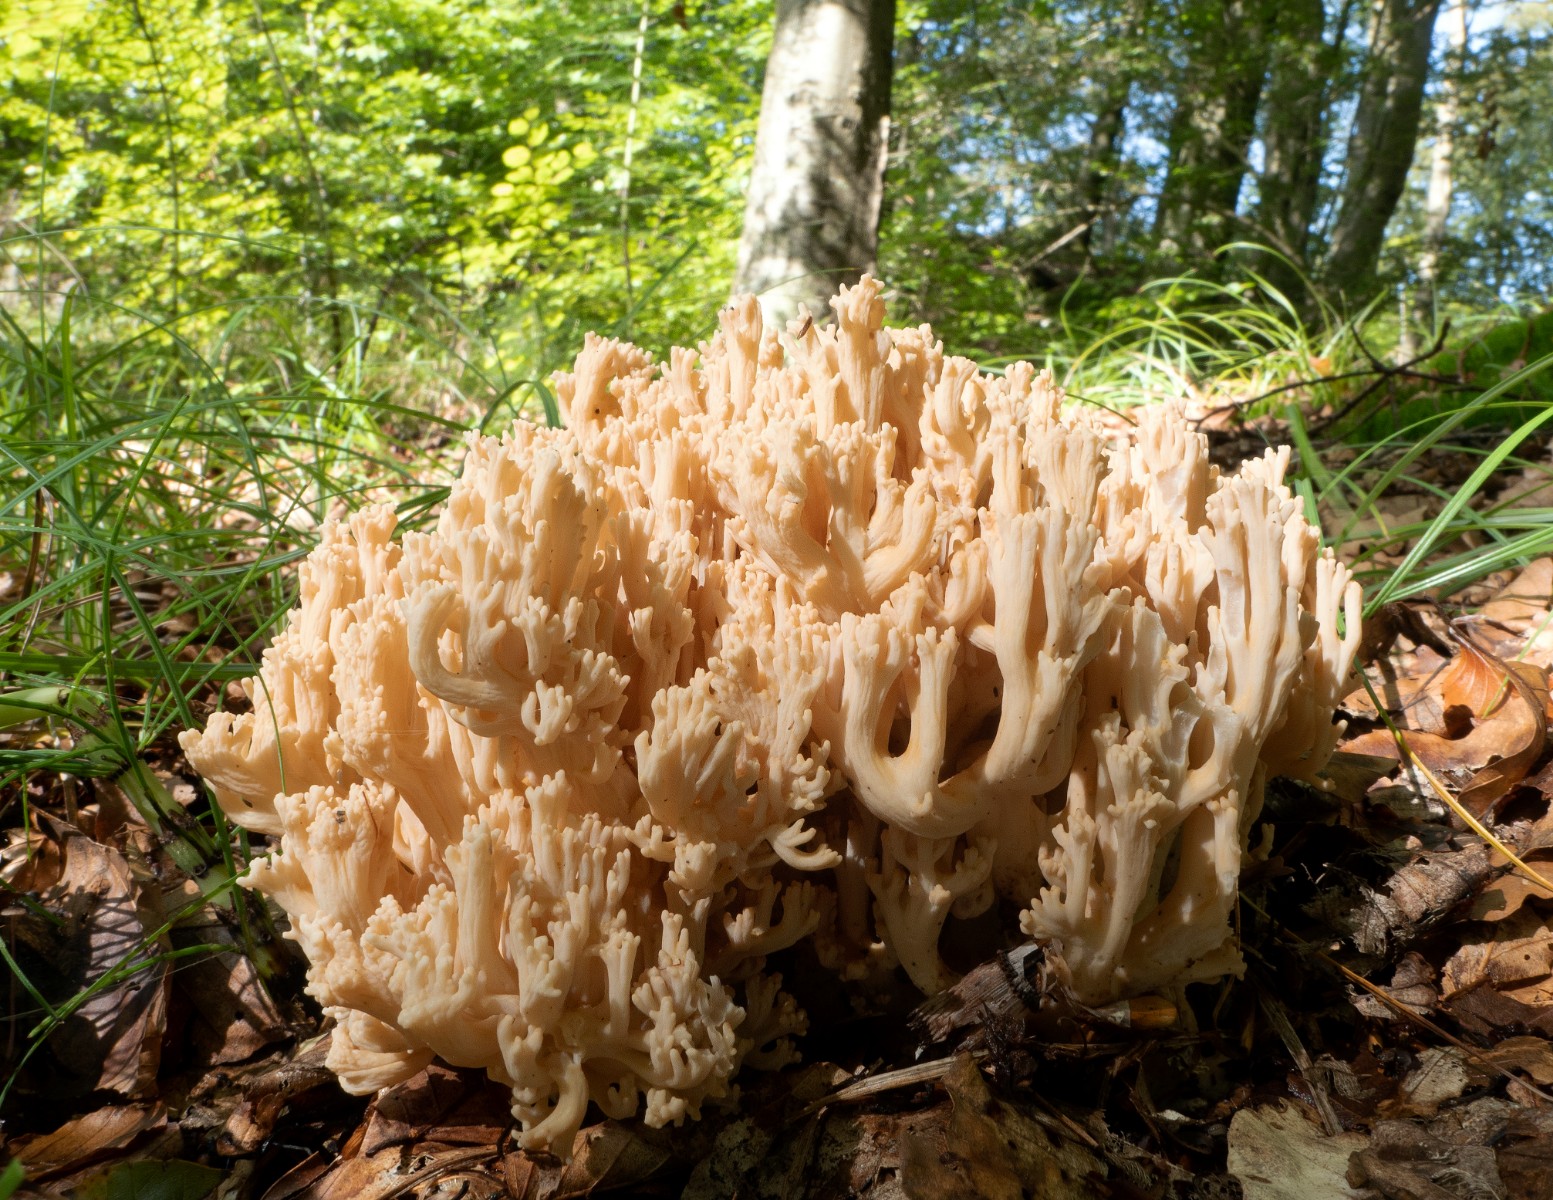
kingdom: Fungi
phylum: Basidiomycota
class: Agaricomycetes
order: Gomphales
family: Gomphaceae
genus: Ramaria
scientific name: Ramaria
